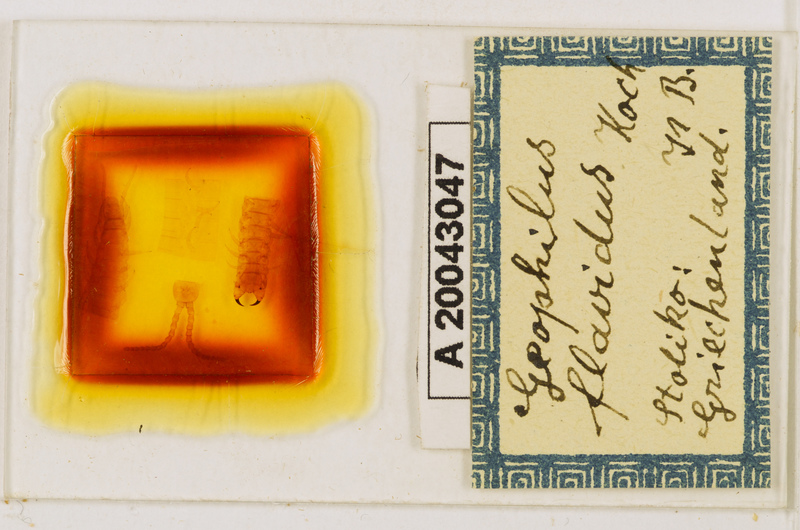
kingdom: Animalia
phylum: Arthropoda
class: Chilopoda
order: Geophilomorpha
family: Geophilidae
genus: Clinopodes
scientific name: Clinopodes flavidus
